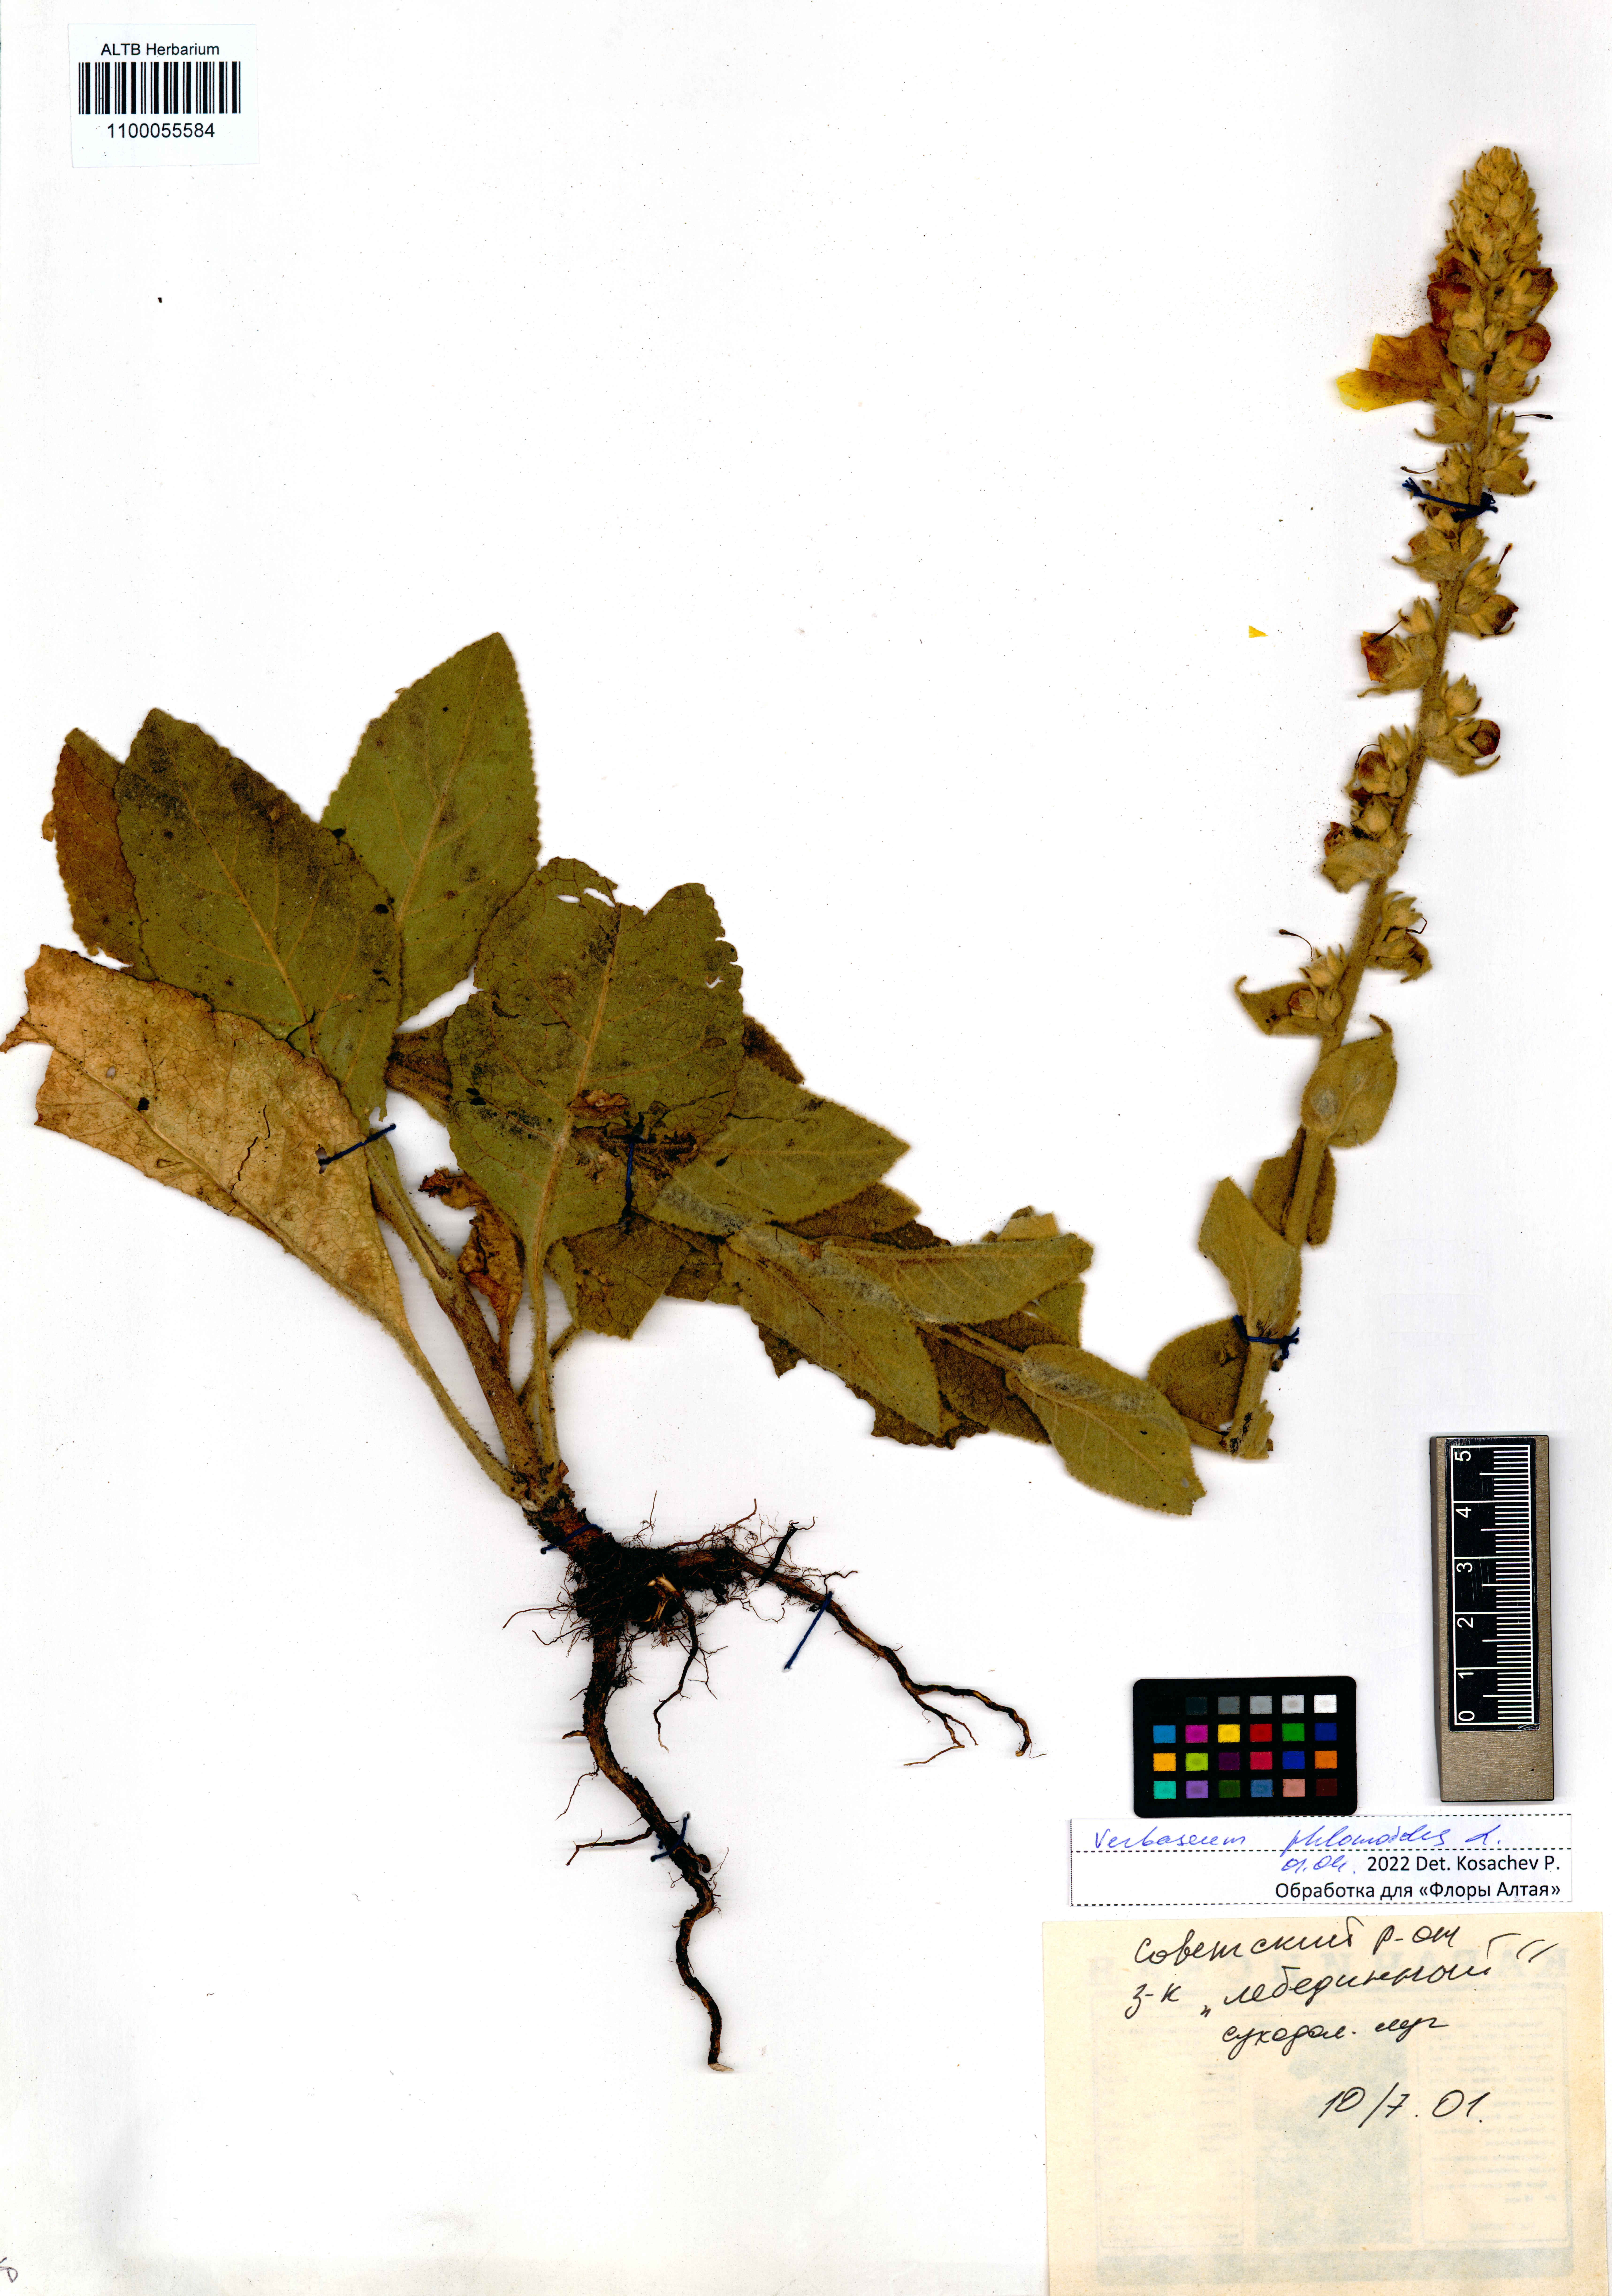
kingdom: Plantae
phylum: Tracheophyta
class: Magnoliopsida
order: Lamiales
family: Scrophulariaceae
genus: Verbascum
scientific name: Verbascum phlomoides
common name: Orange mullein
